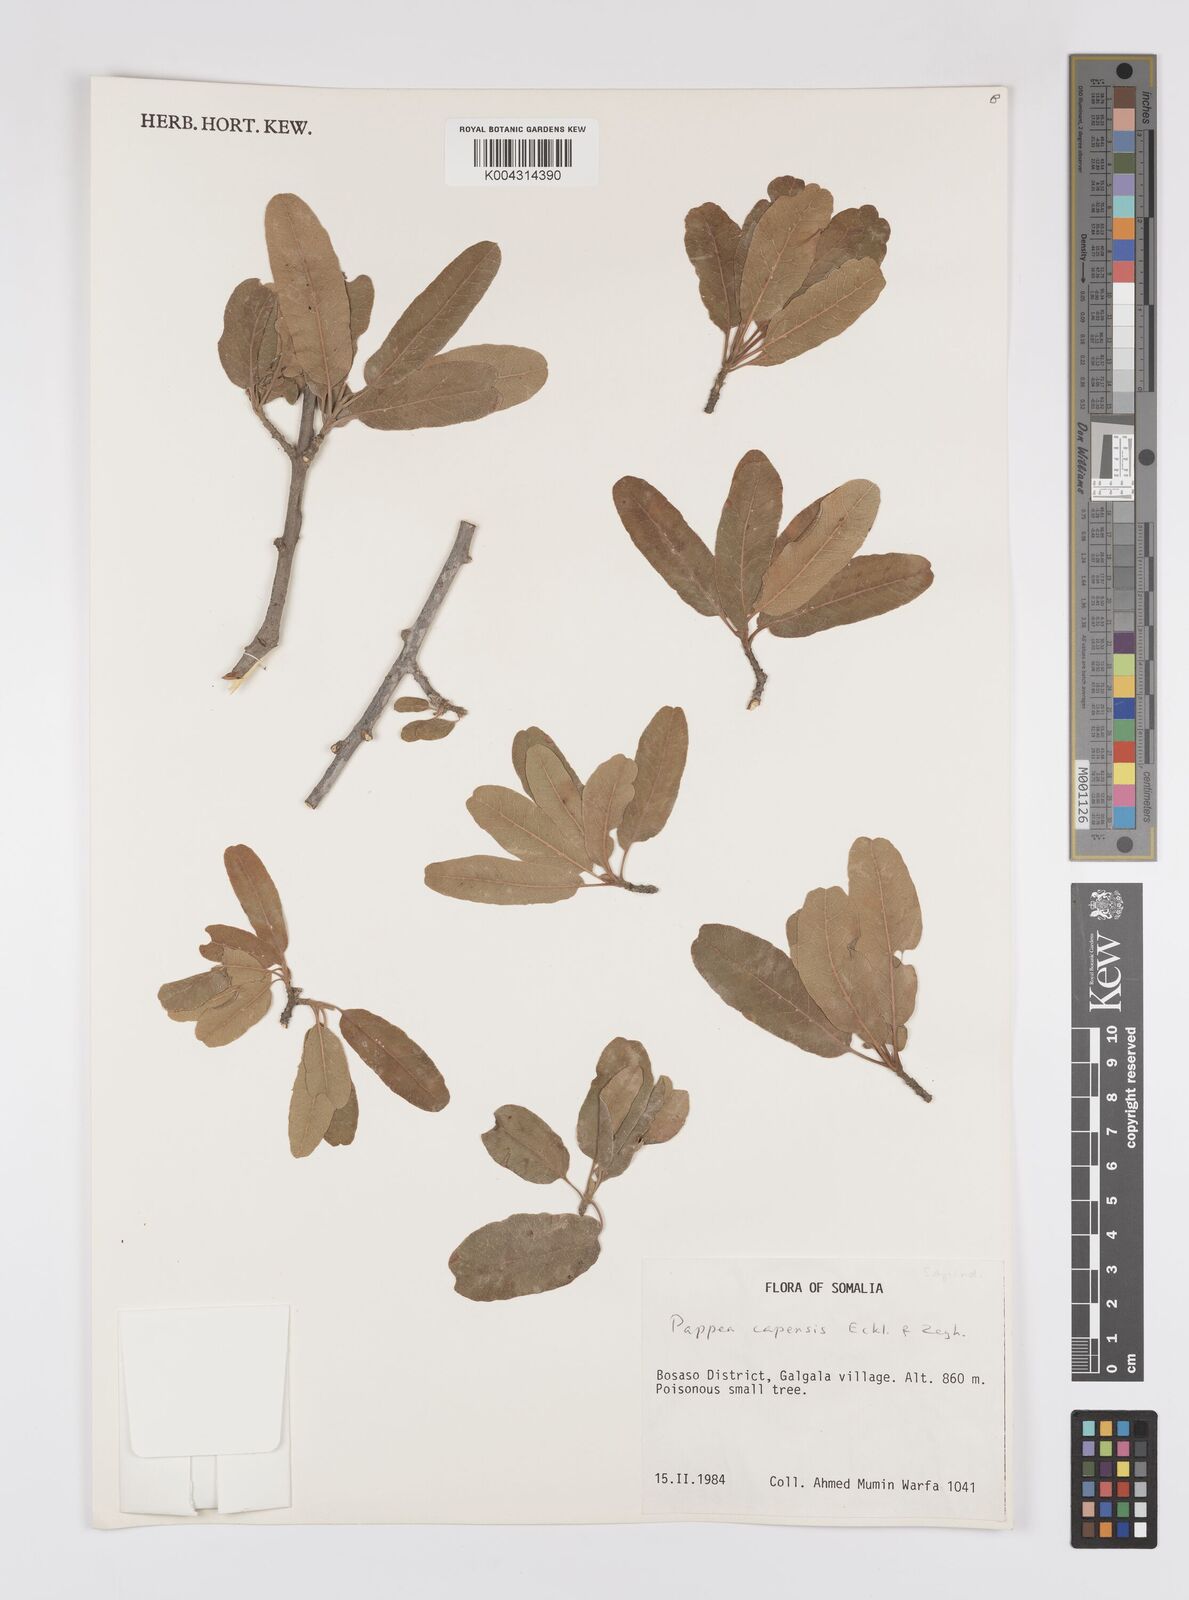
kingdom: Plantae
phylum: Tracheophyta
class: Magnoliopsida
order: Sapindales
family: Sapindaceae
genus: Pappea
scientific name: Pappea capensis
